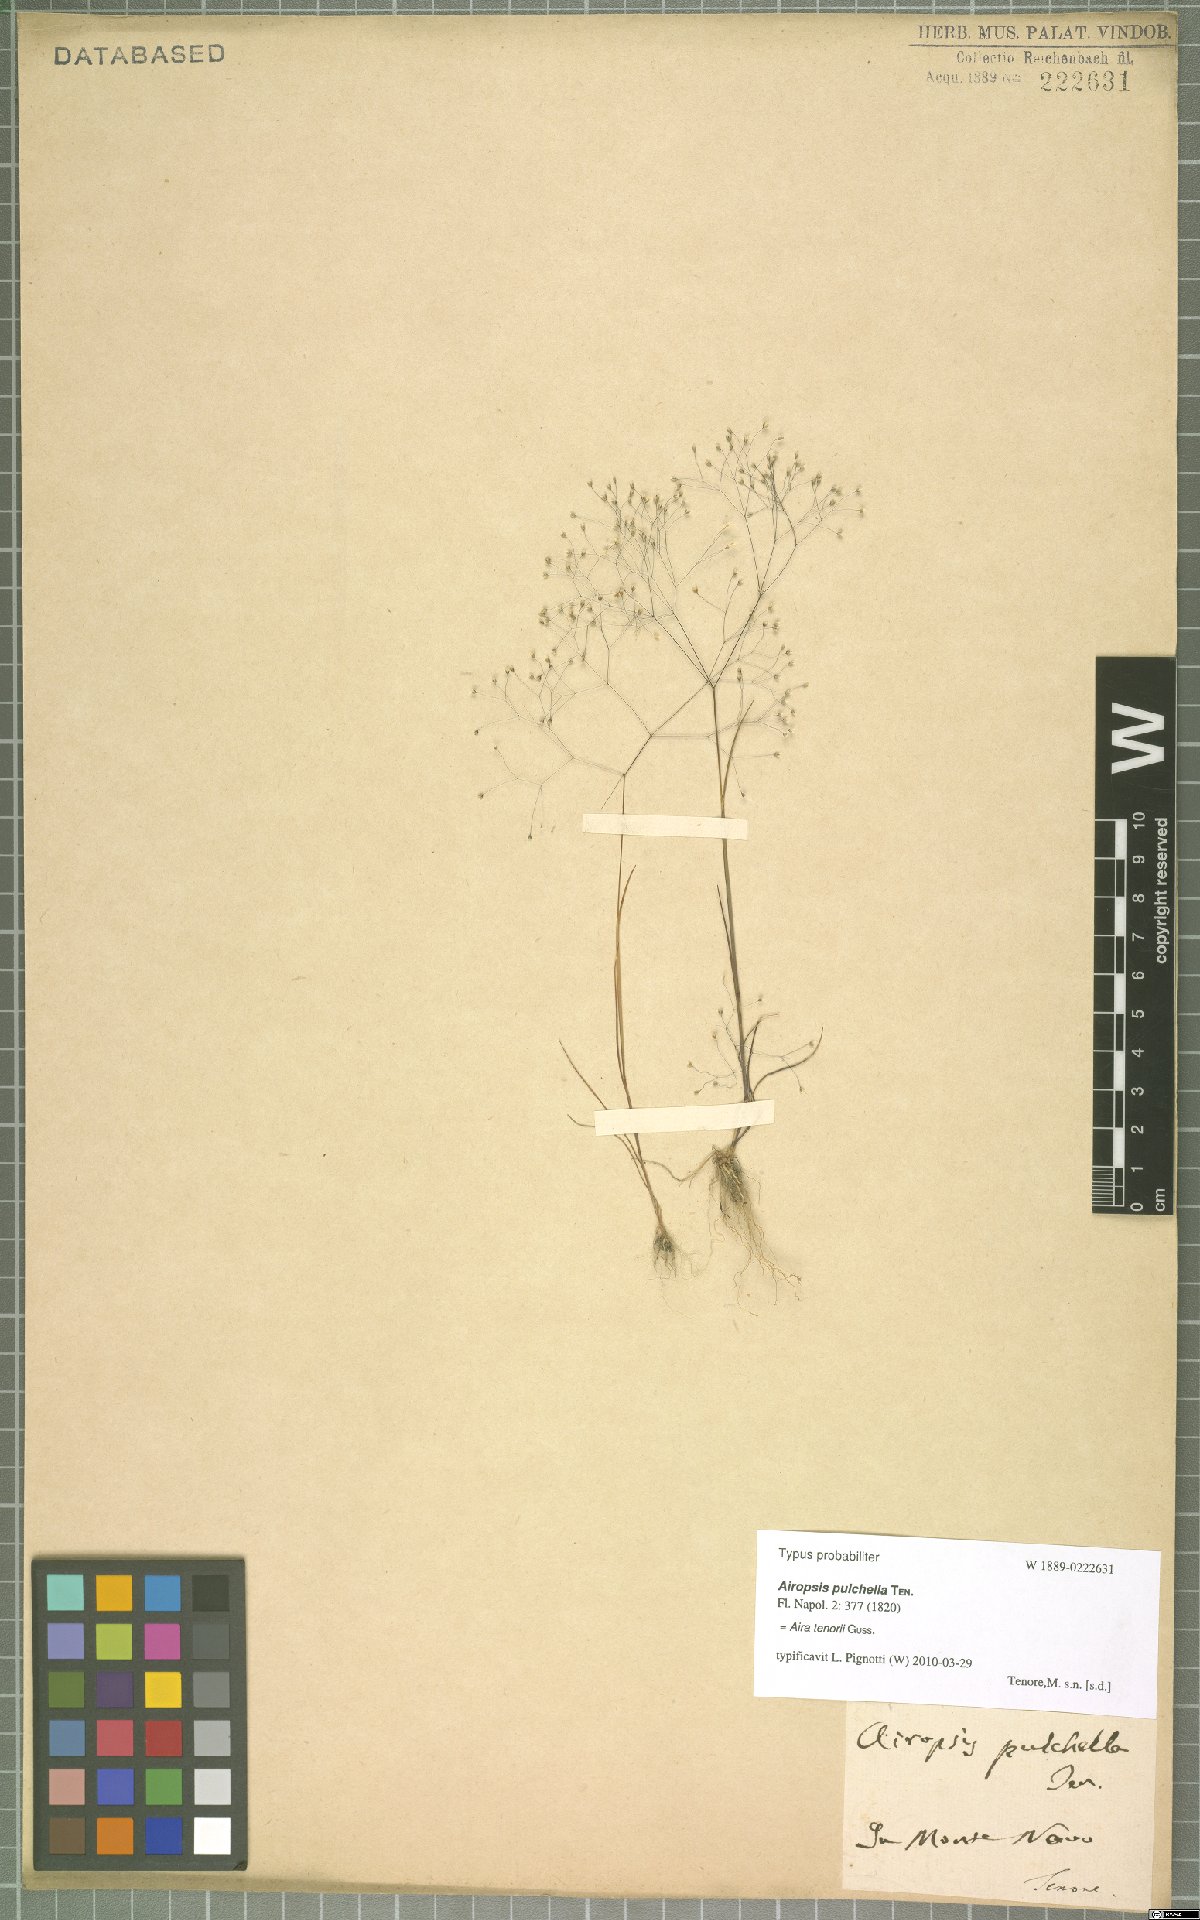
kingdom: Plantae
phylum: Tracheophyta
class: Liliopsida
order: Poales
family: Poaceae
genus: Aira
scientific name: Aira tenorei
